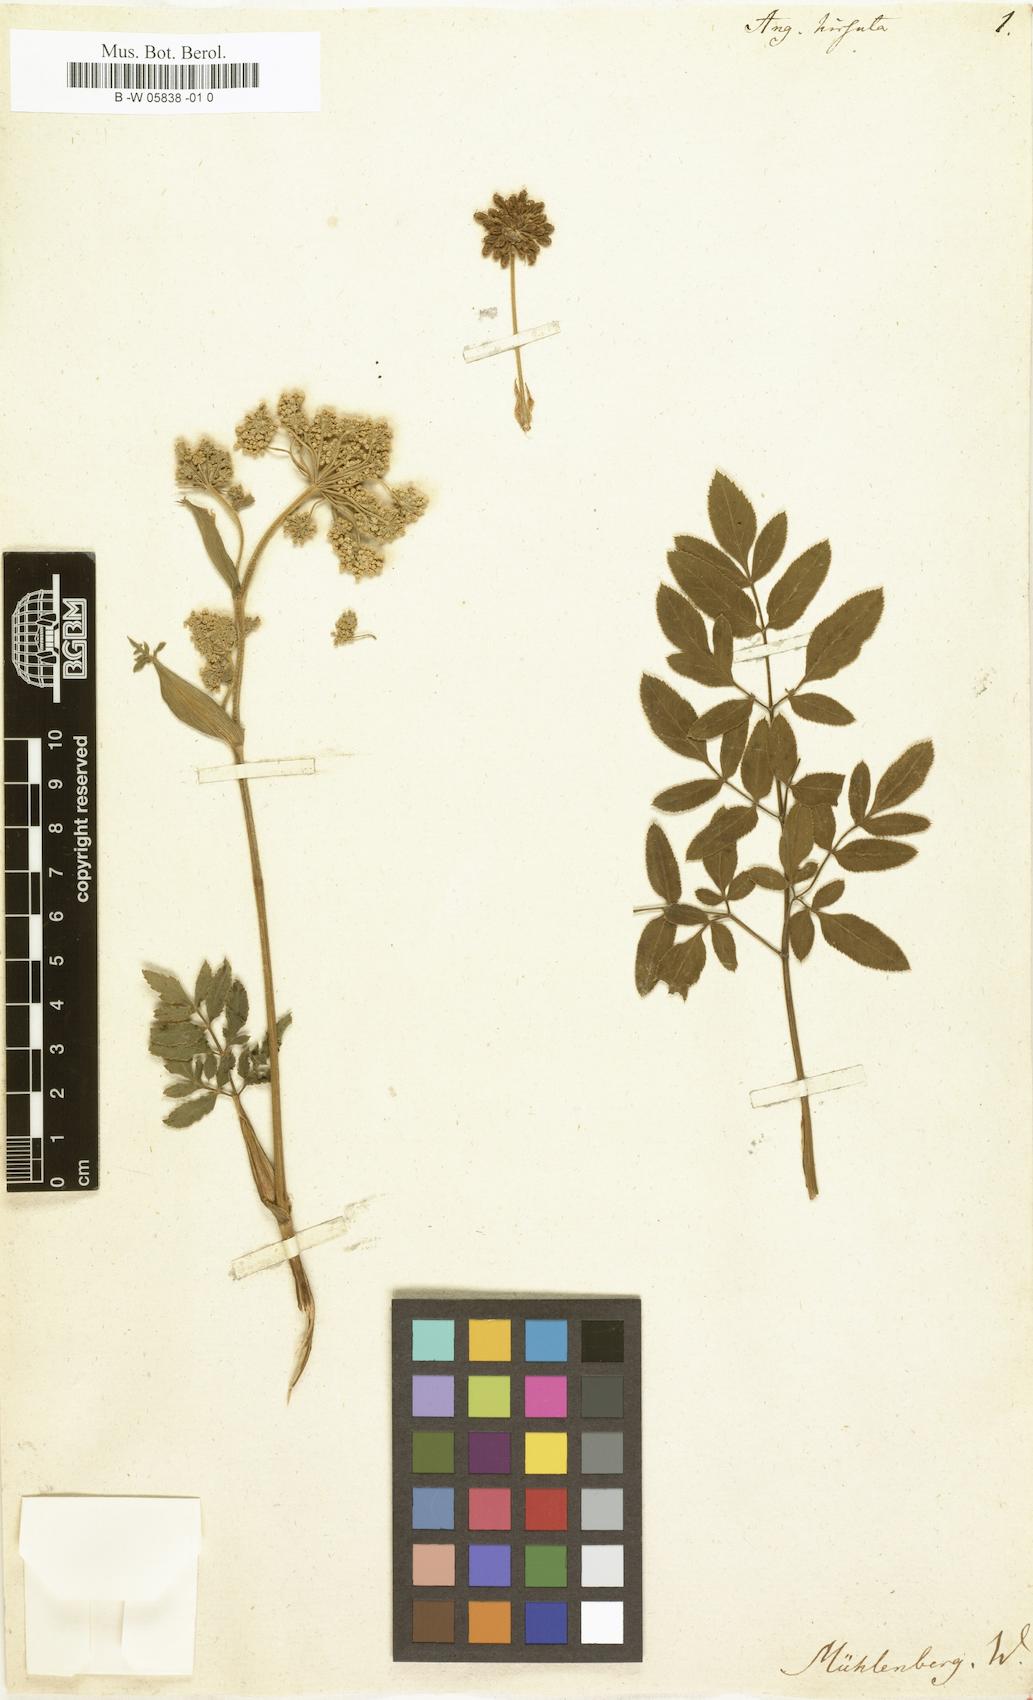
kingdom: Plantae
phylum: Tracheophyta
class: Magnoliopsida
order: Apiales
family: Apiaceae
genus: Angelica
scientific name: Angelica
